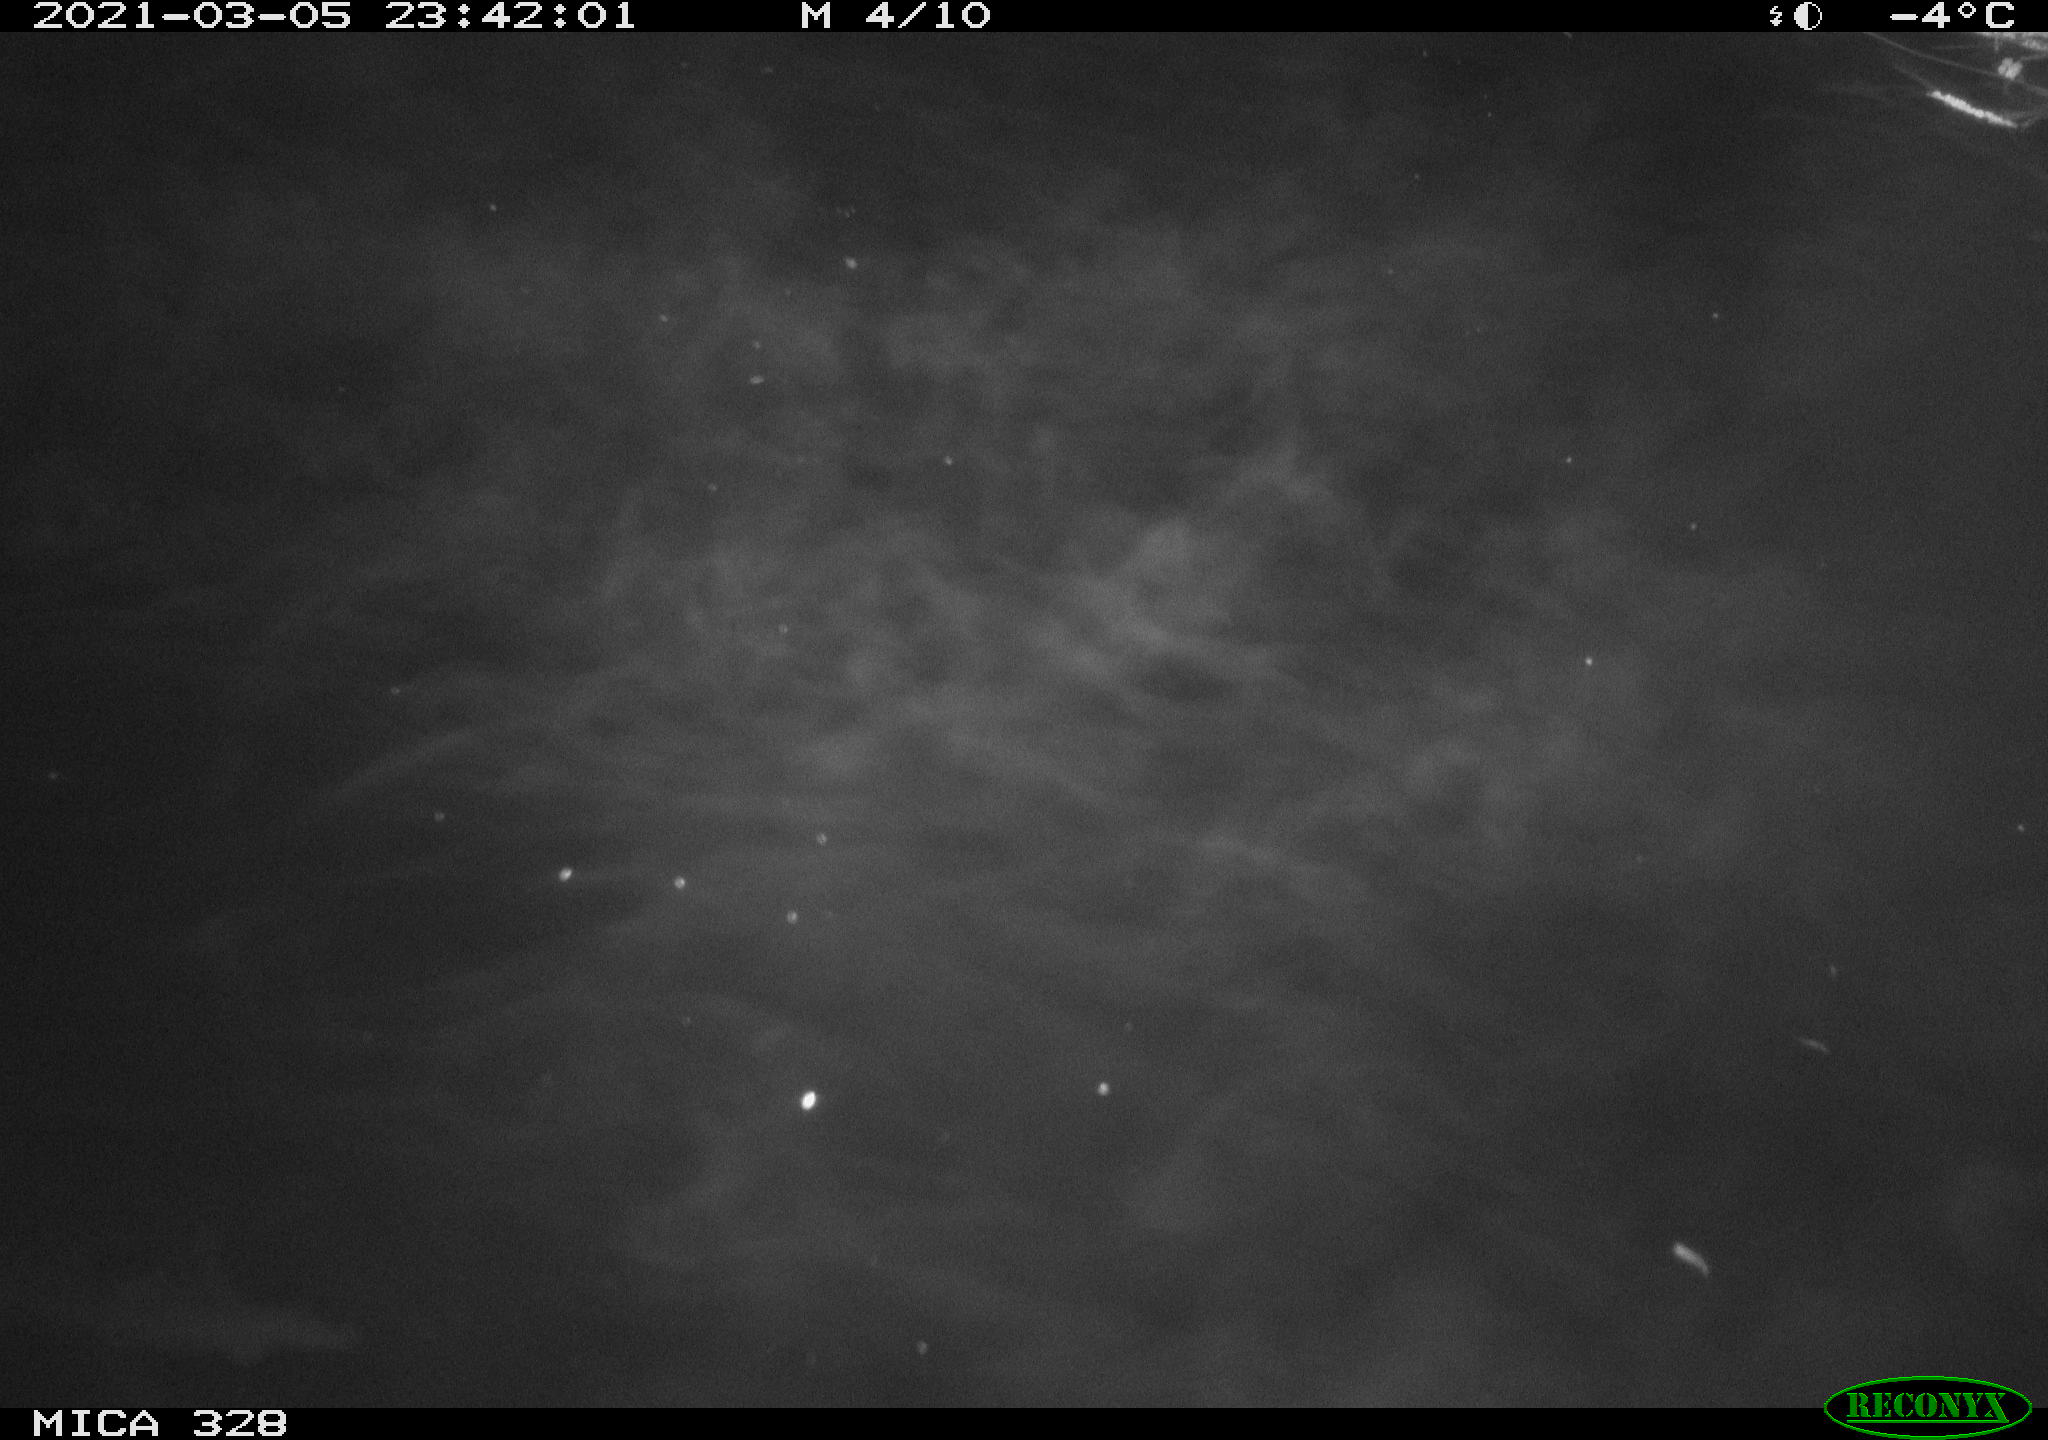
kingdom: Animalia
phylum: Chordata
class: Mammalia
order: Rodentia
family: Cricetidae
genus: Ondatra
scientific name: Ondatra zibethicus
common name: Muskrat
